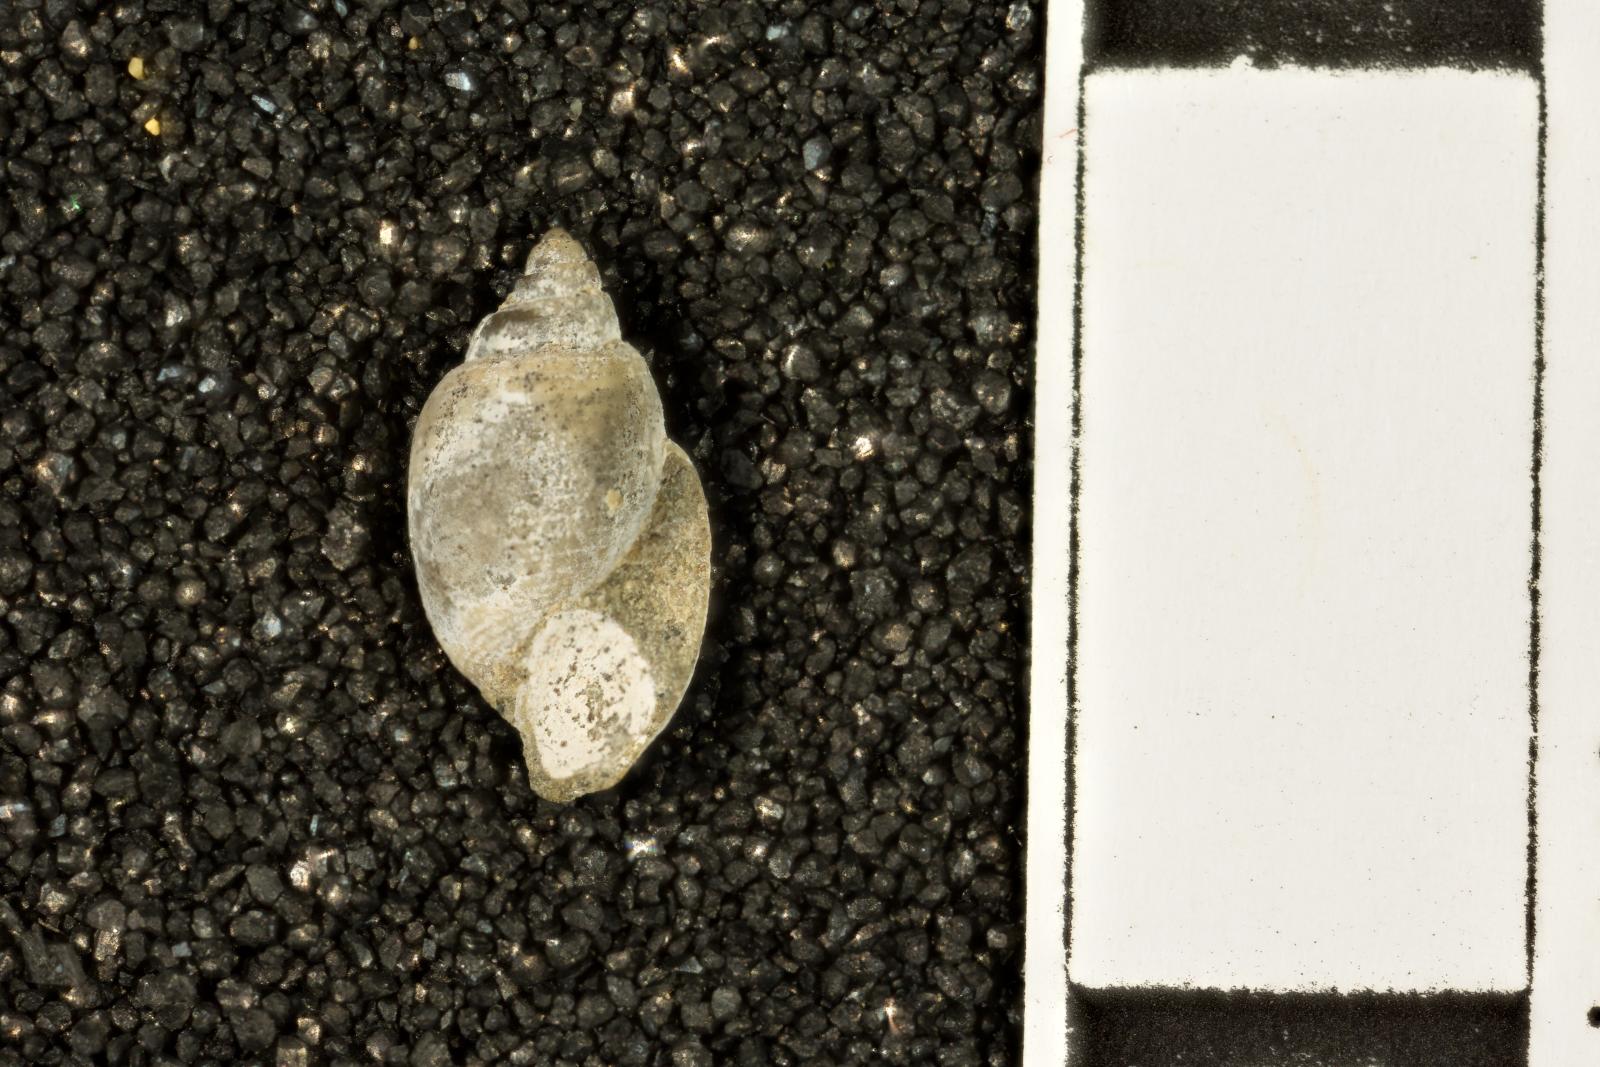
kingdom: Animalia
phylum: Mollusca
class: Gastropoda
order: Cephalaspidea
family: Acteonidae
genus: Acteon
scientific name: Acteon politus
